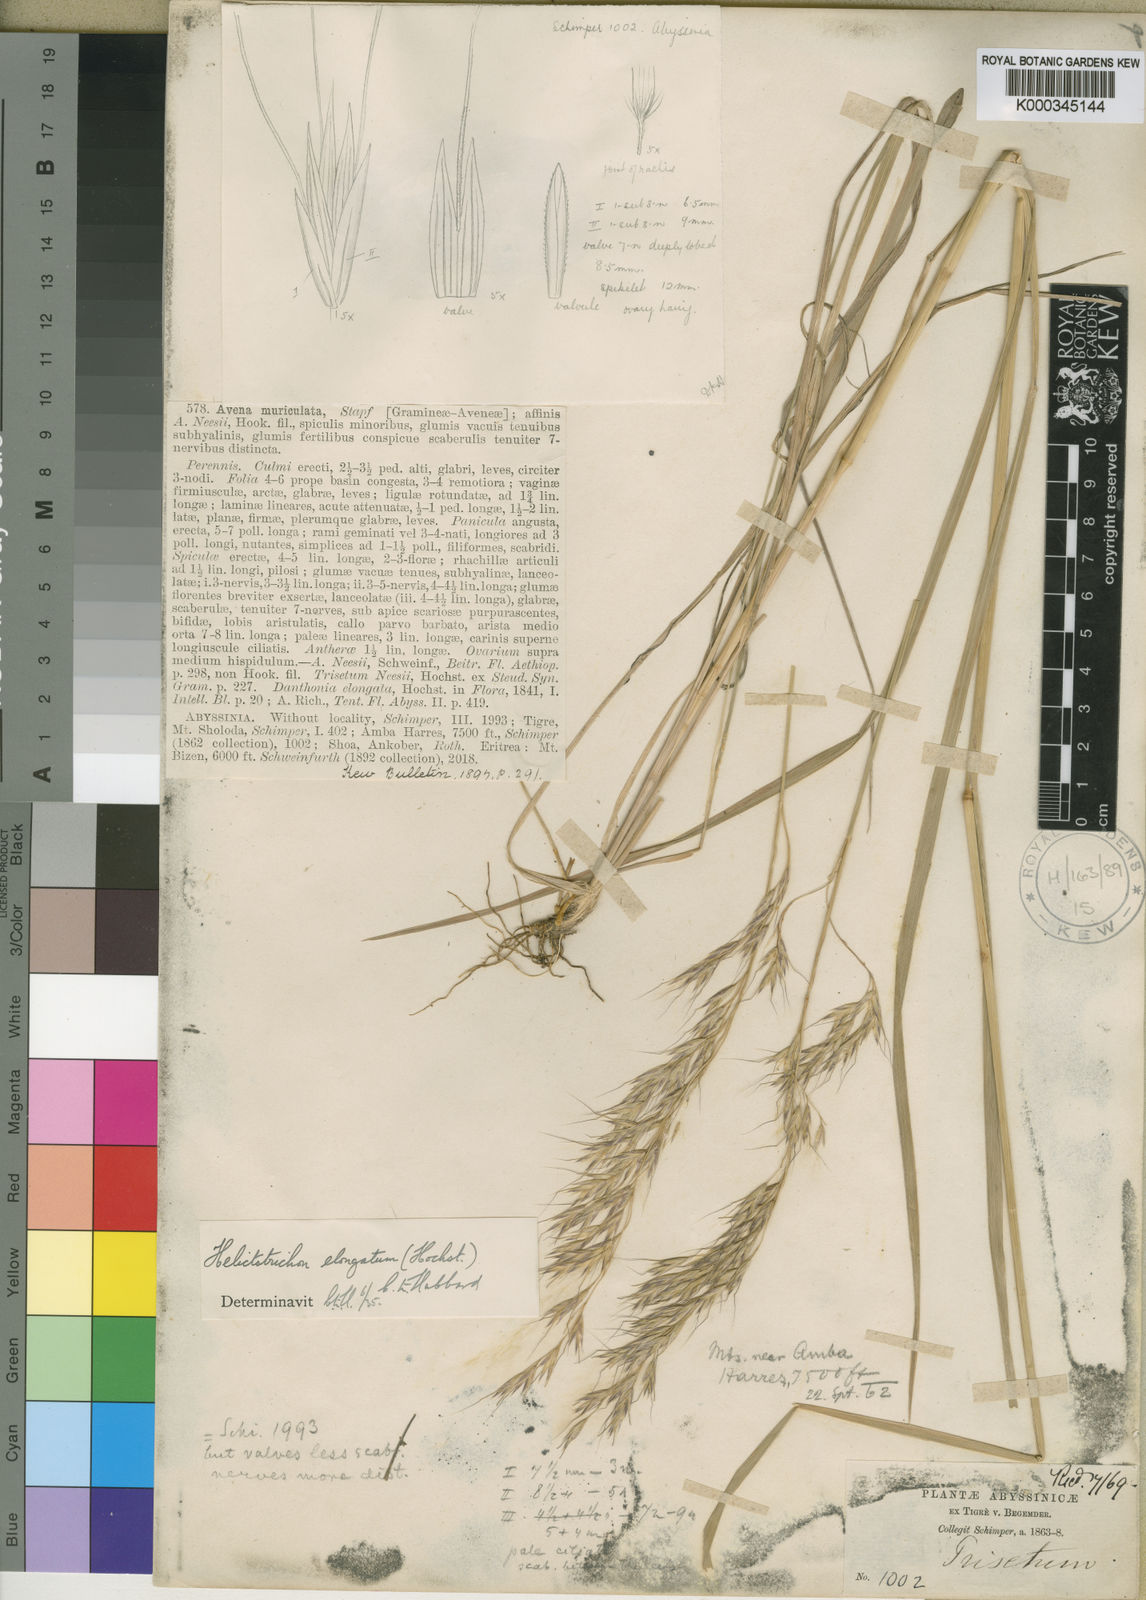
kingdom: Plantae
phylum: Tracheophyta
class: Liliopsida
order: Poales
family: Poaceae
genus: Trisetopsis
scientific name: Trisetopsis elongata
